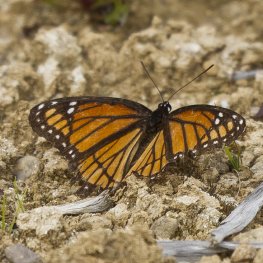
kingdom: Animalia
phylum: Arthropoda
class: Insecta
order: Lepidoptera
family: Nymphalidae
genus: Limenitis
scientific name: Limenitis archippus
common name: Viceroy
